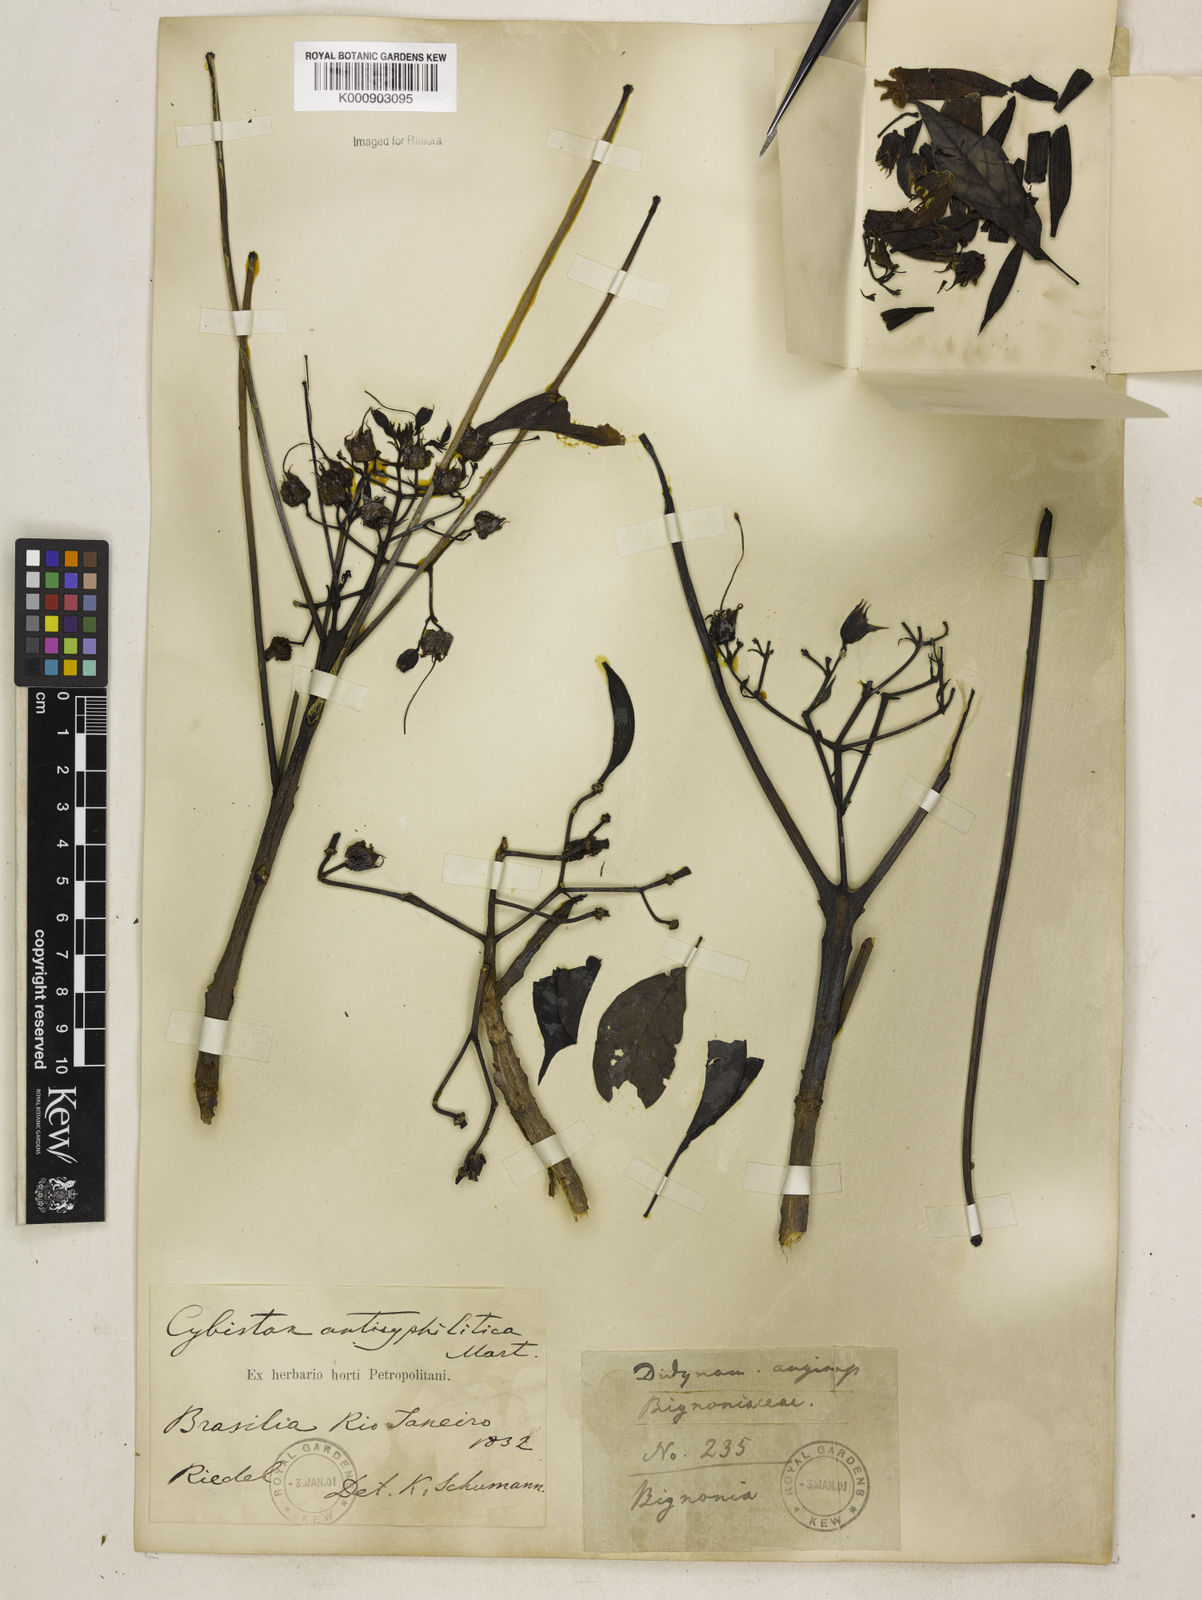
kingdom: Plantae
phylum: Tracheophyta
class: Magnoliopsida
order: Lamiales
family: Bignoniaceae
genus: Cybistax
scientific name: Cybistax antisyphilitica
